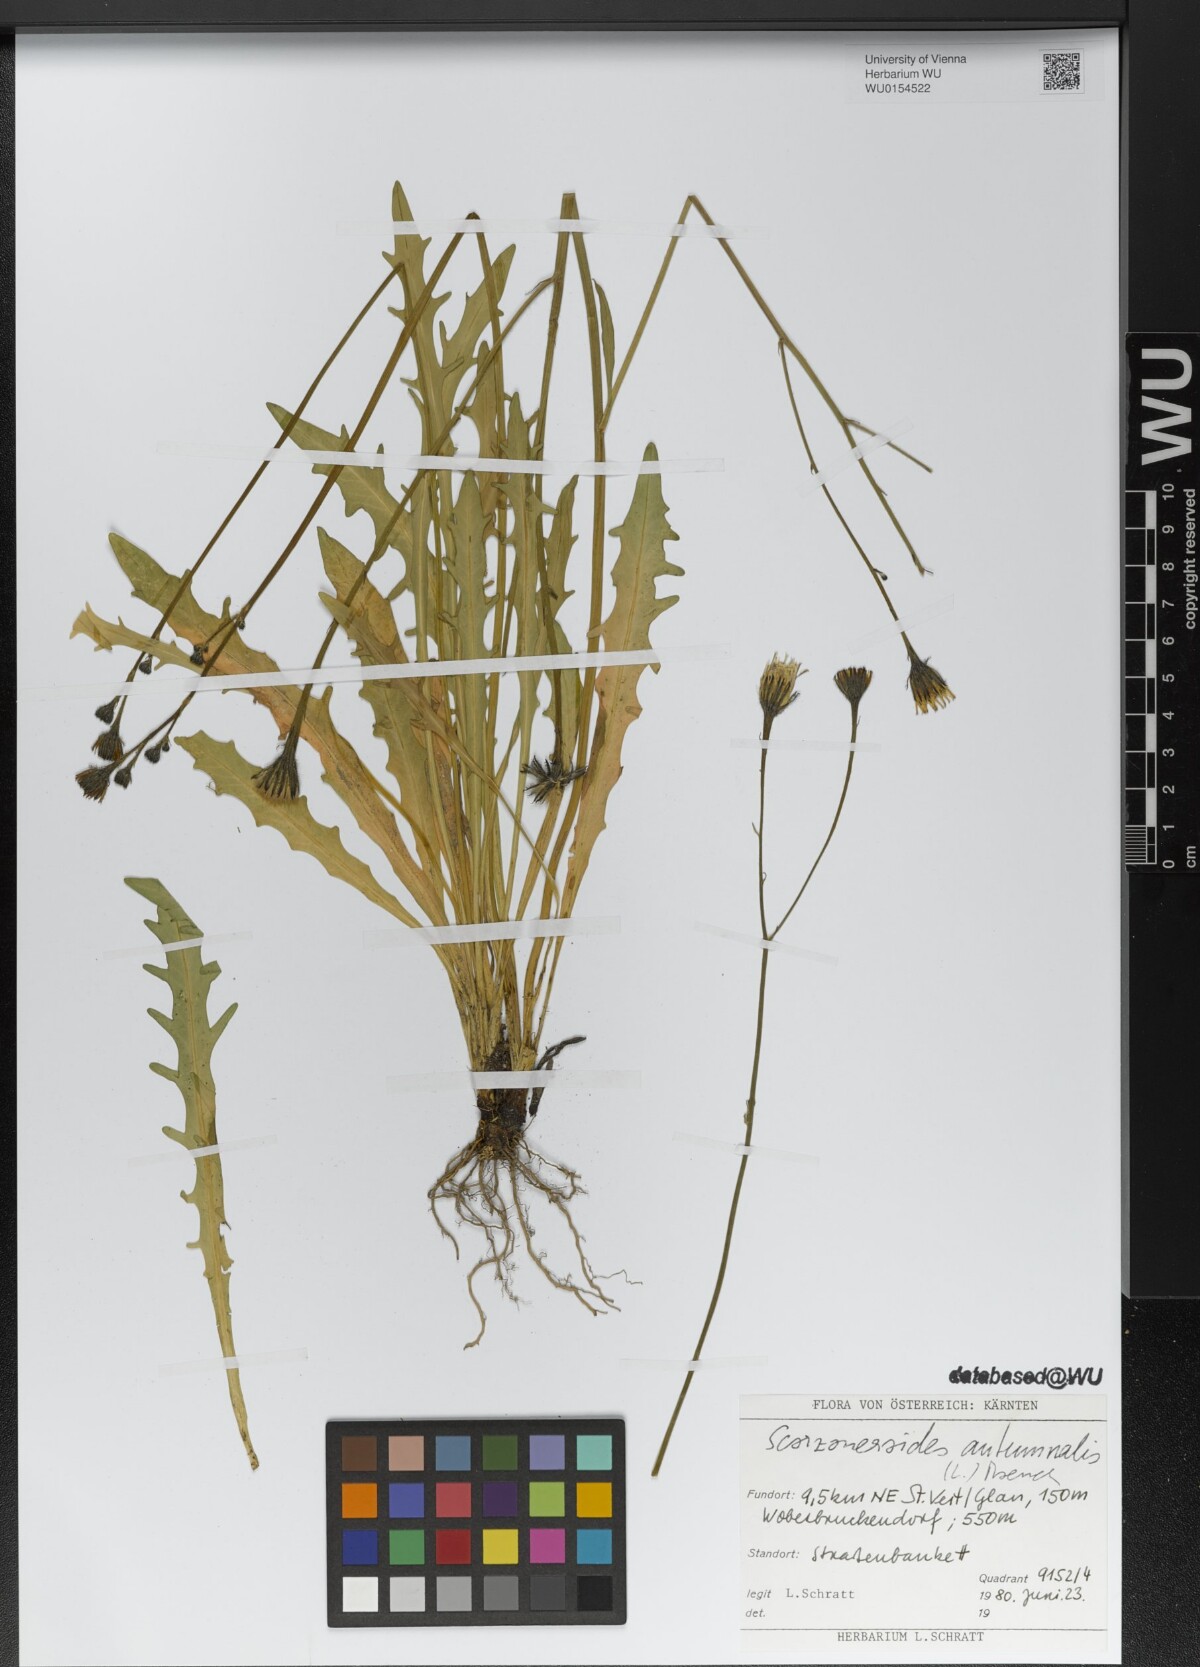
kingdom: Plantae
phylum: Tracheophyta
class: Magnoliopsida
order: Asterales
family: Asteraceae
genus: Scorzoneroides
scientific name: Scorzoneroides autumnalis
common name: Autumn hawkbit
